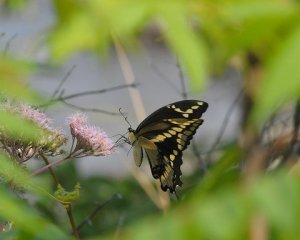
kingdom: Animalia
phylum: Arthropoda
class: Insecta
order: Lepidoptera
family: Papilionidae
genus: Papilio
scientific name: Papilio cresphontes
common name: Eastern Giant Swallowtail
